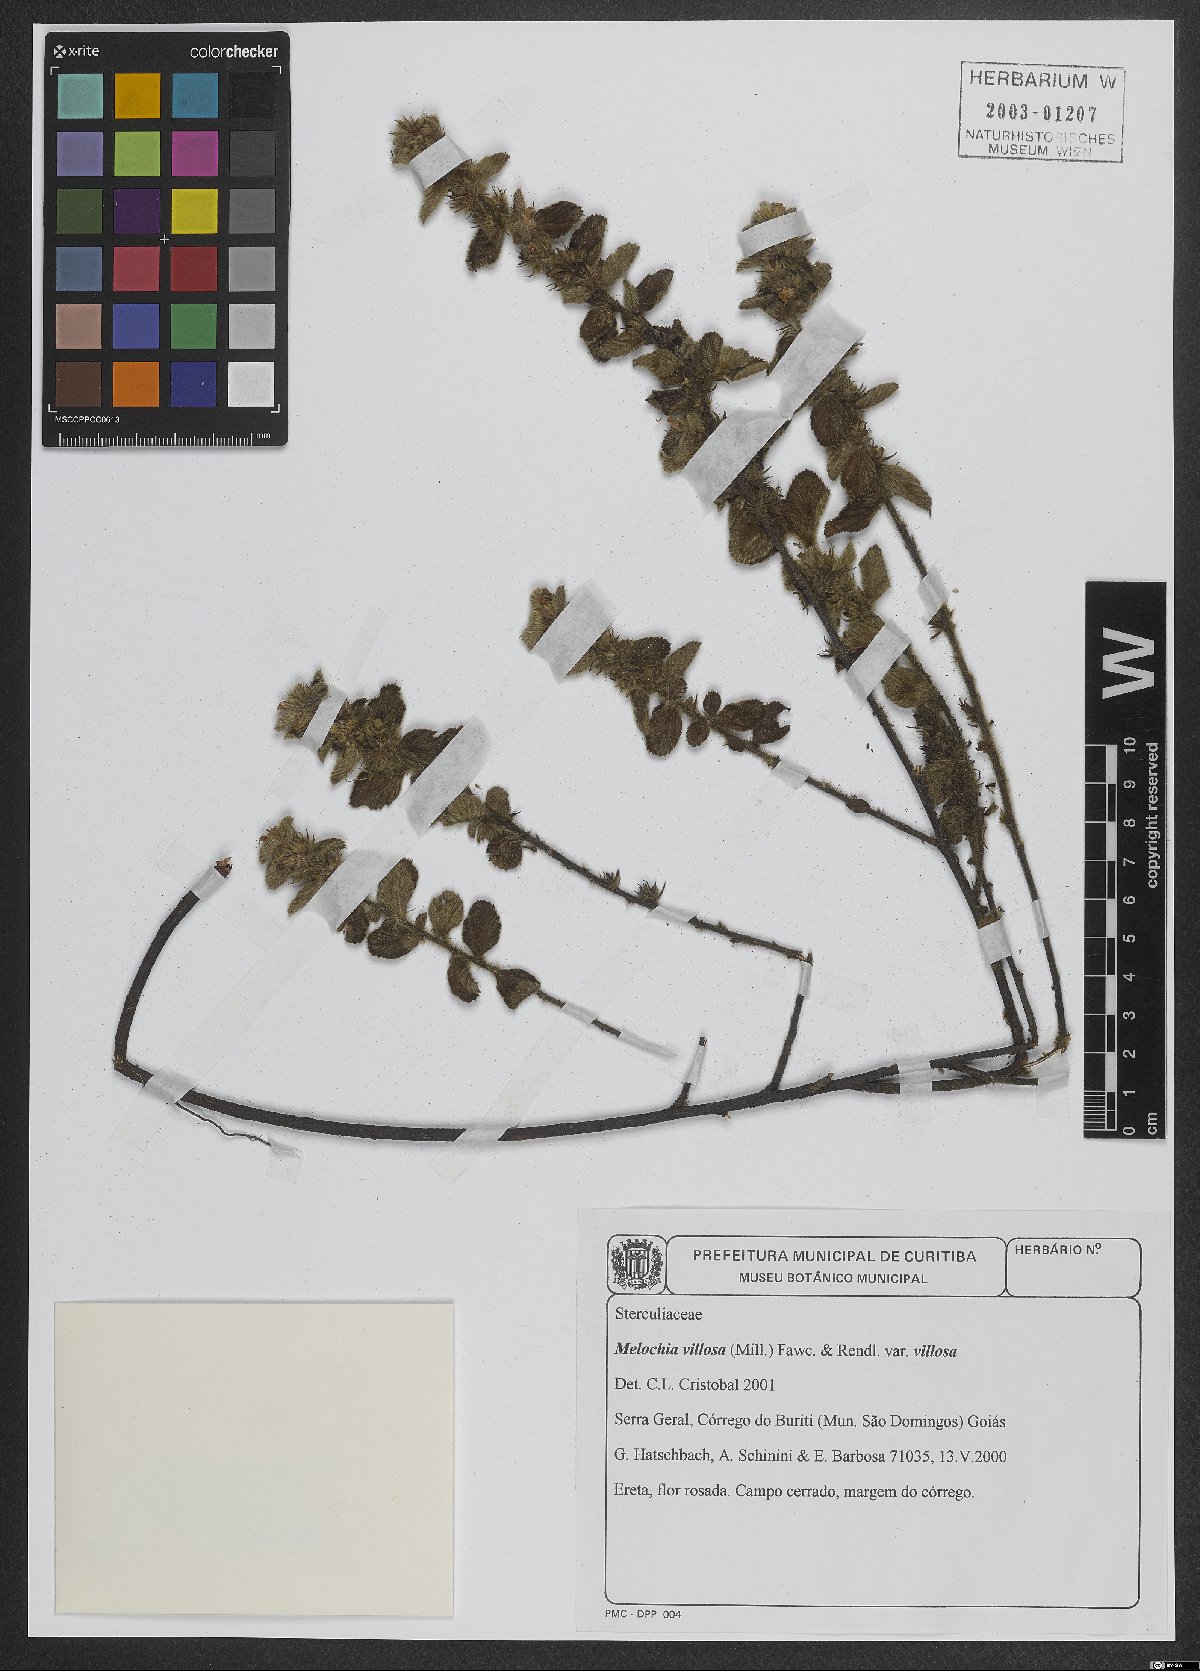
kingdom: Plantae
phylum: Tracheophyta
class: Magnoliopsida
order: Malvales
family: Malvaceae
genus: Melochia
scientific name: Melochia spicata
